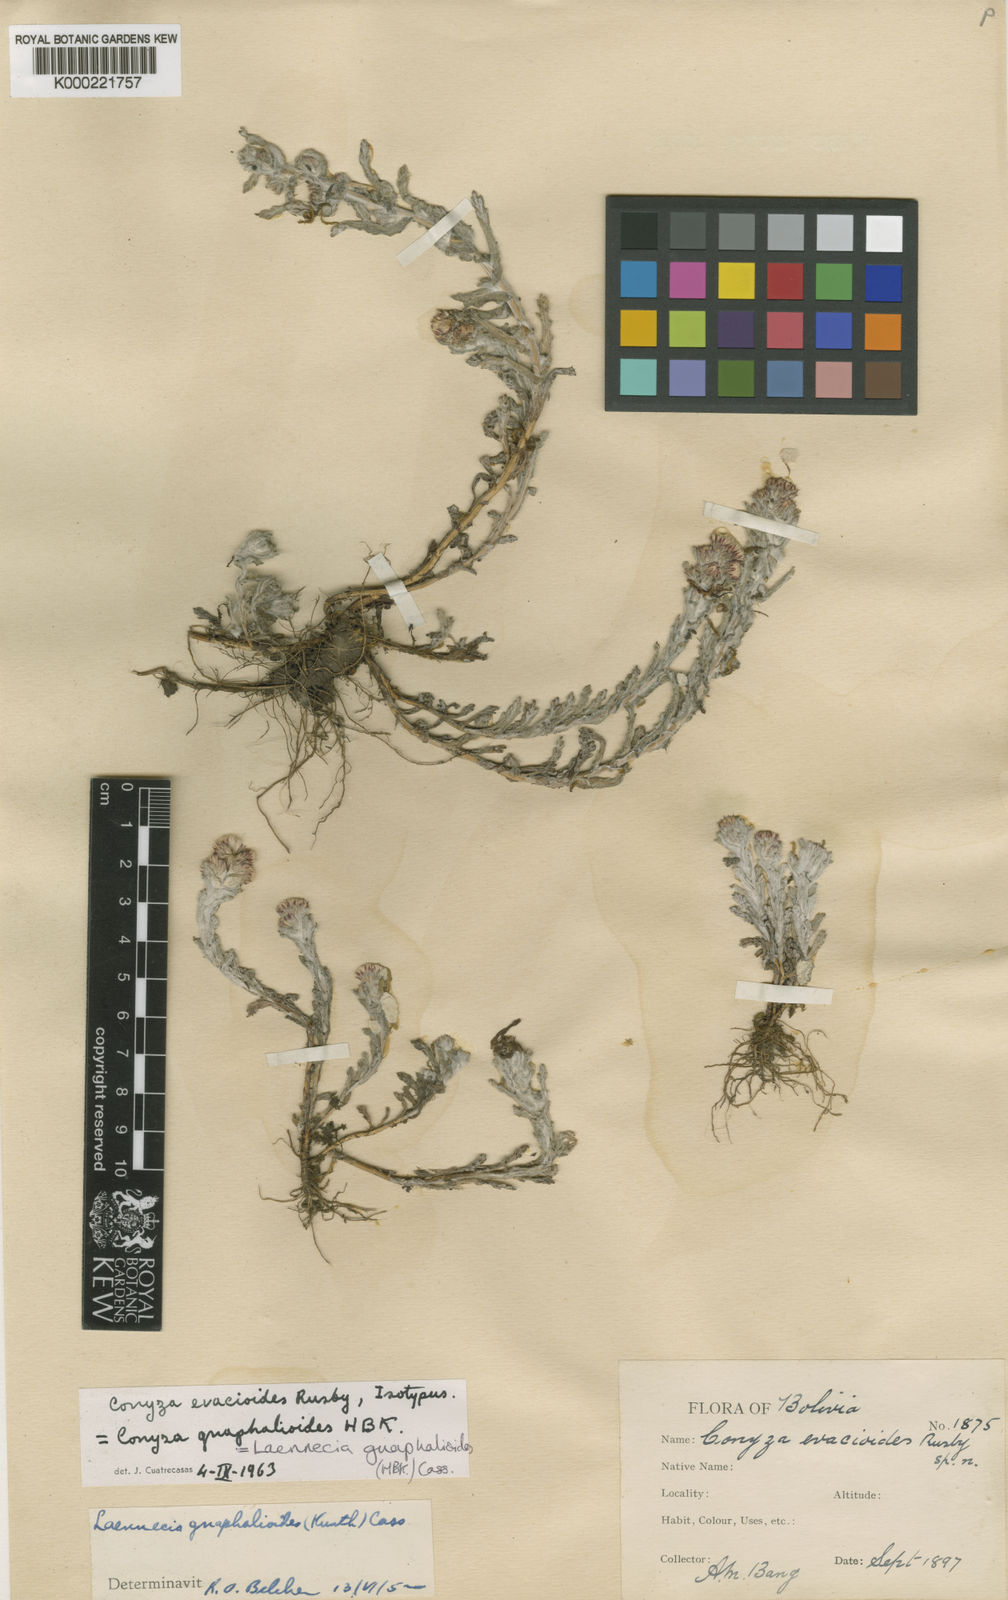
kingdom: Plantae
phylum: Tracheophyta
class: Magnoliopsida
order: Asterales
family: Asteraceae
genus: Laennecia
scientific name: Laennecia gnaphalioides
